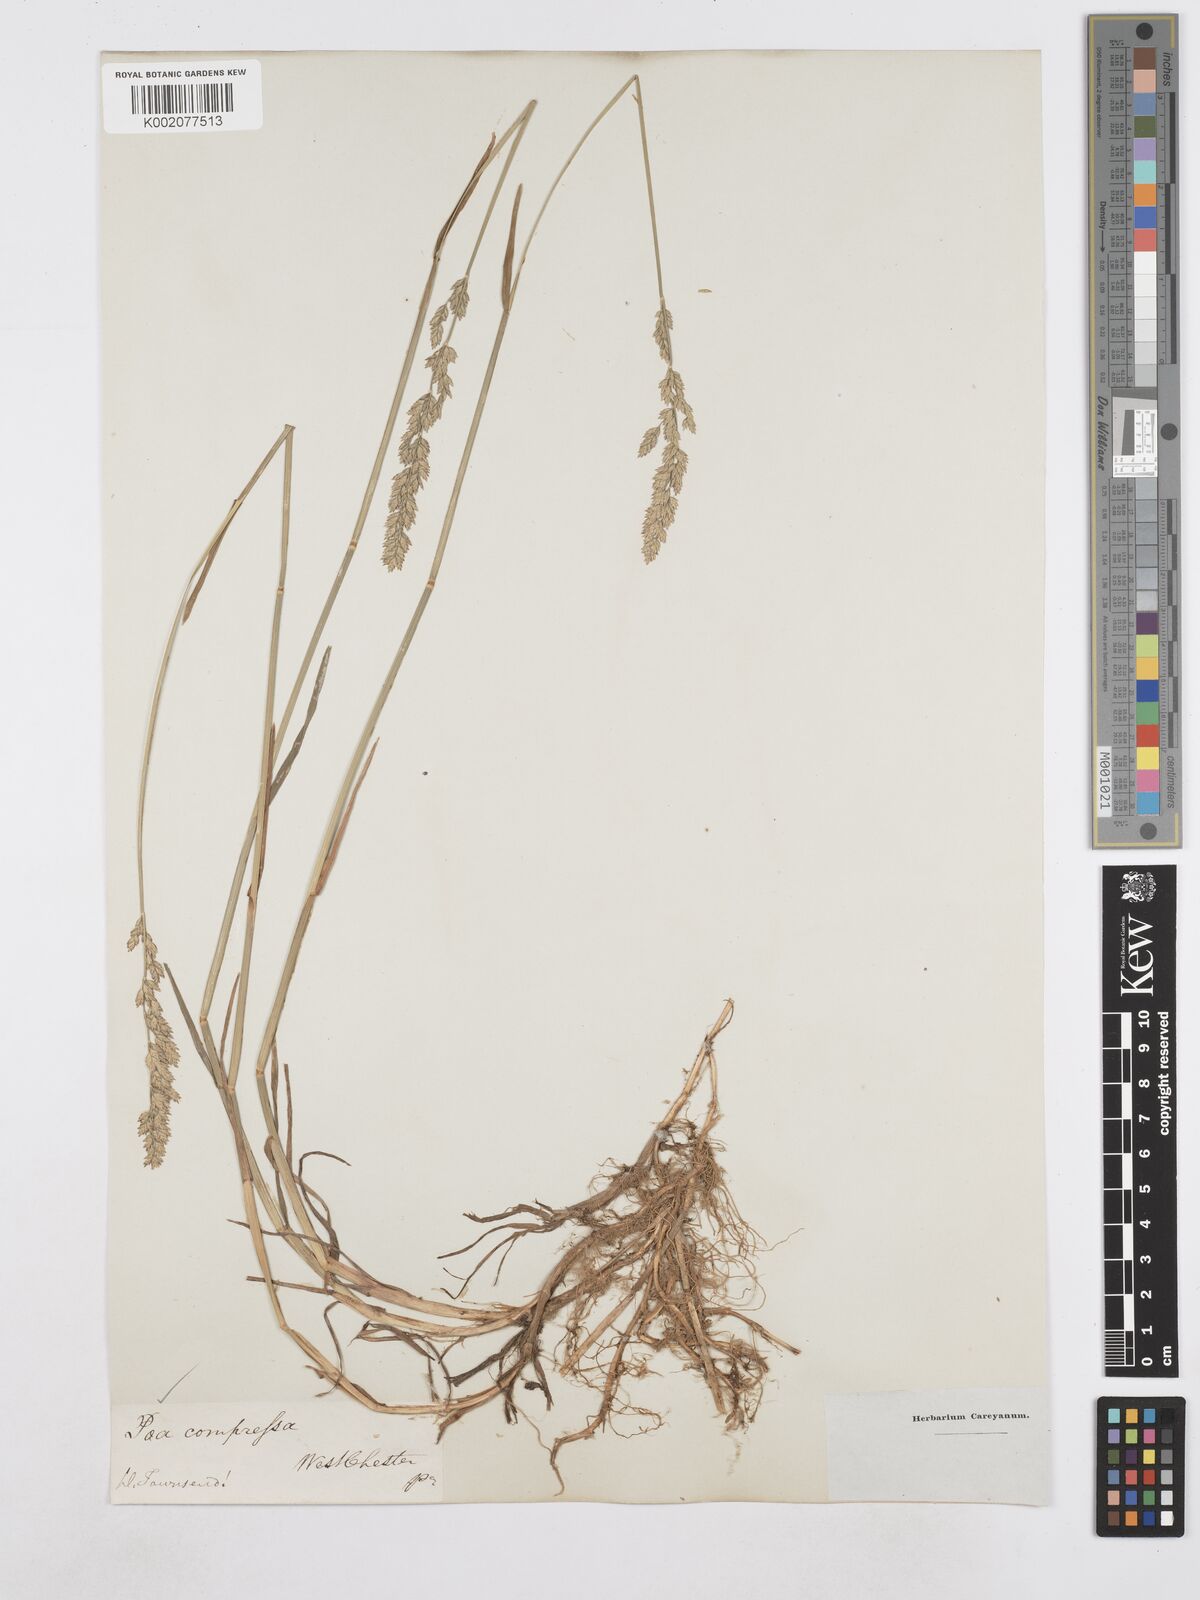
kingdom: Plantae
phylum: Tracheophyta
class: Liliopsida
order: Poales
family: Poaceae
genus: Poa
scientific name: Poa compressa
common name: Canada bluegrass
